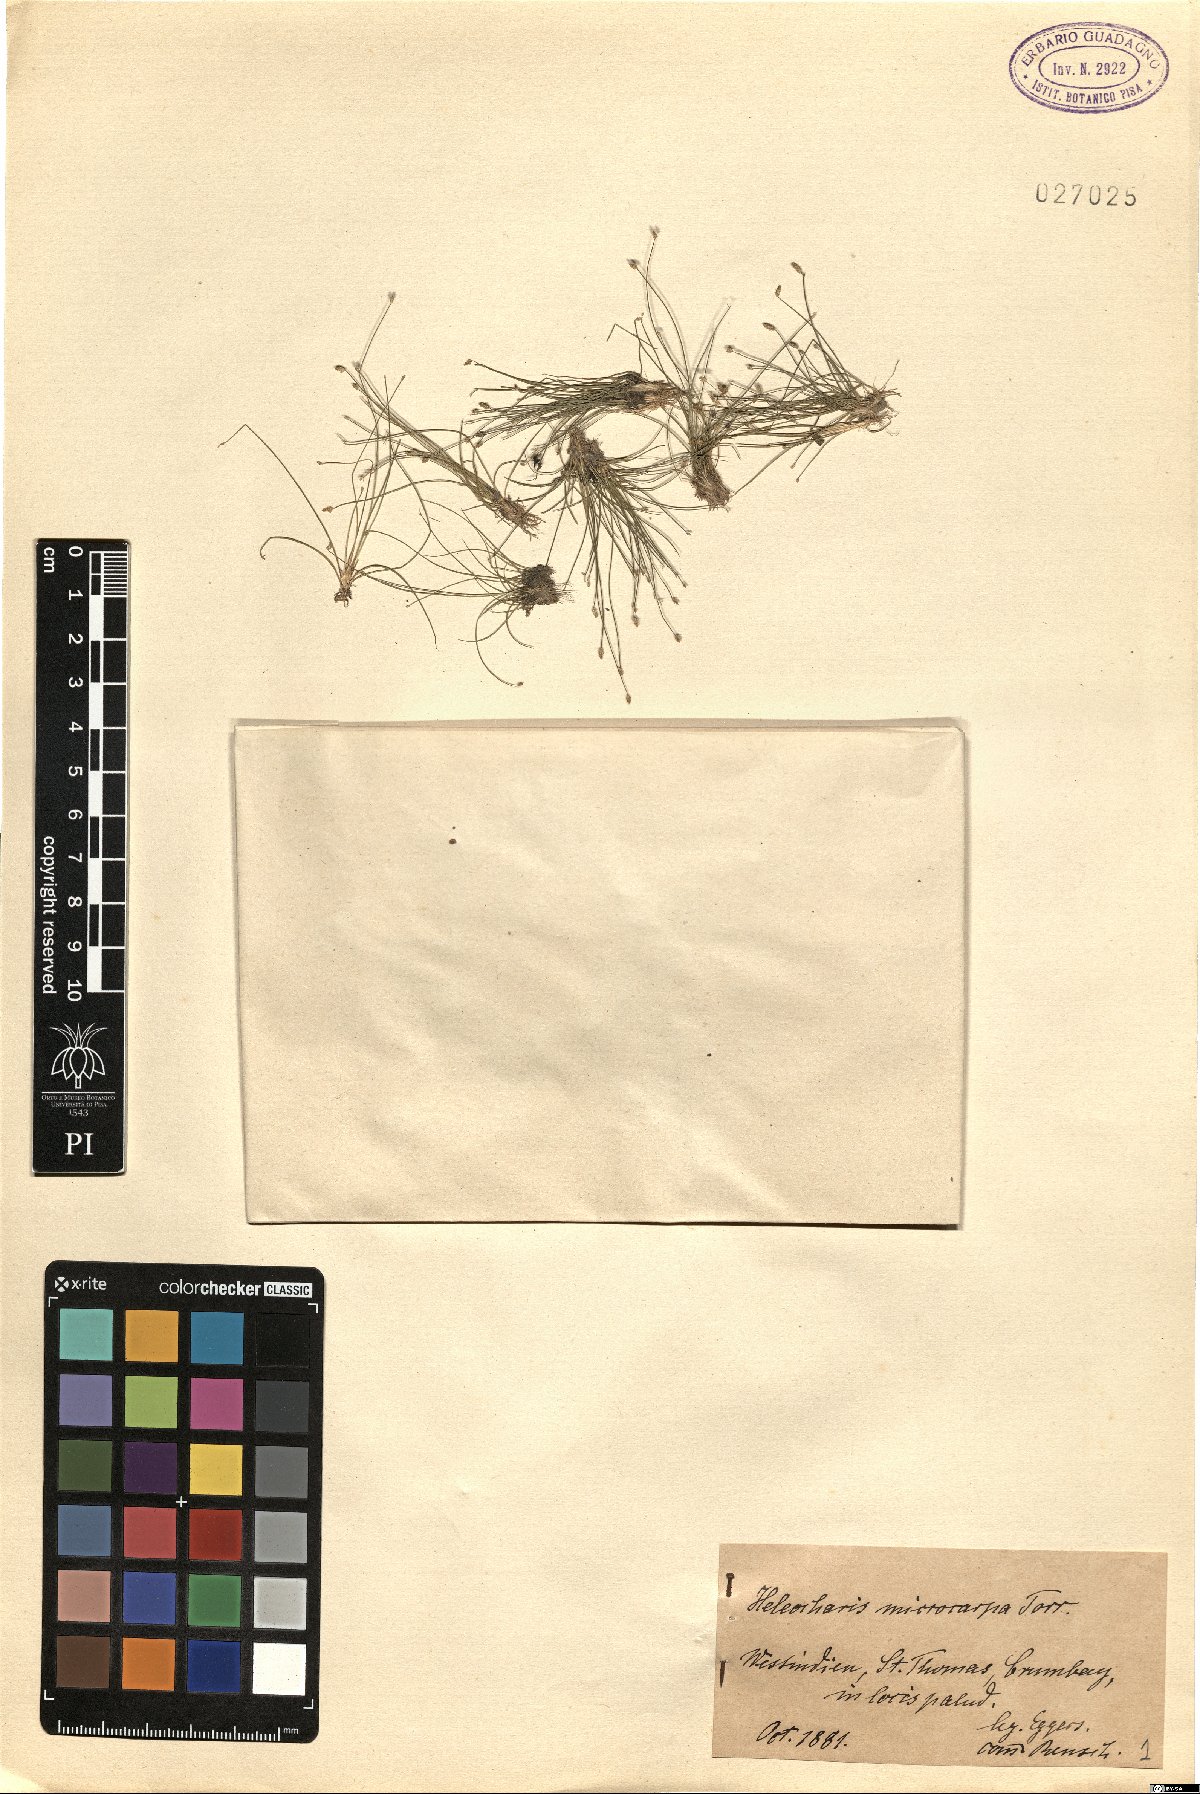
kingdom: Plantae
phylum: Tracheophyta
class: Liliopsida
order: Poales
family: Cyperaceae
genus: Eleocharis
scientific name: Eleocharis microcarpa
